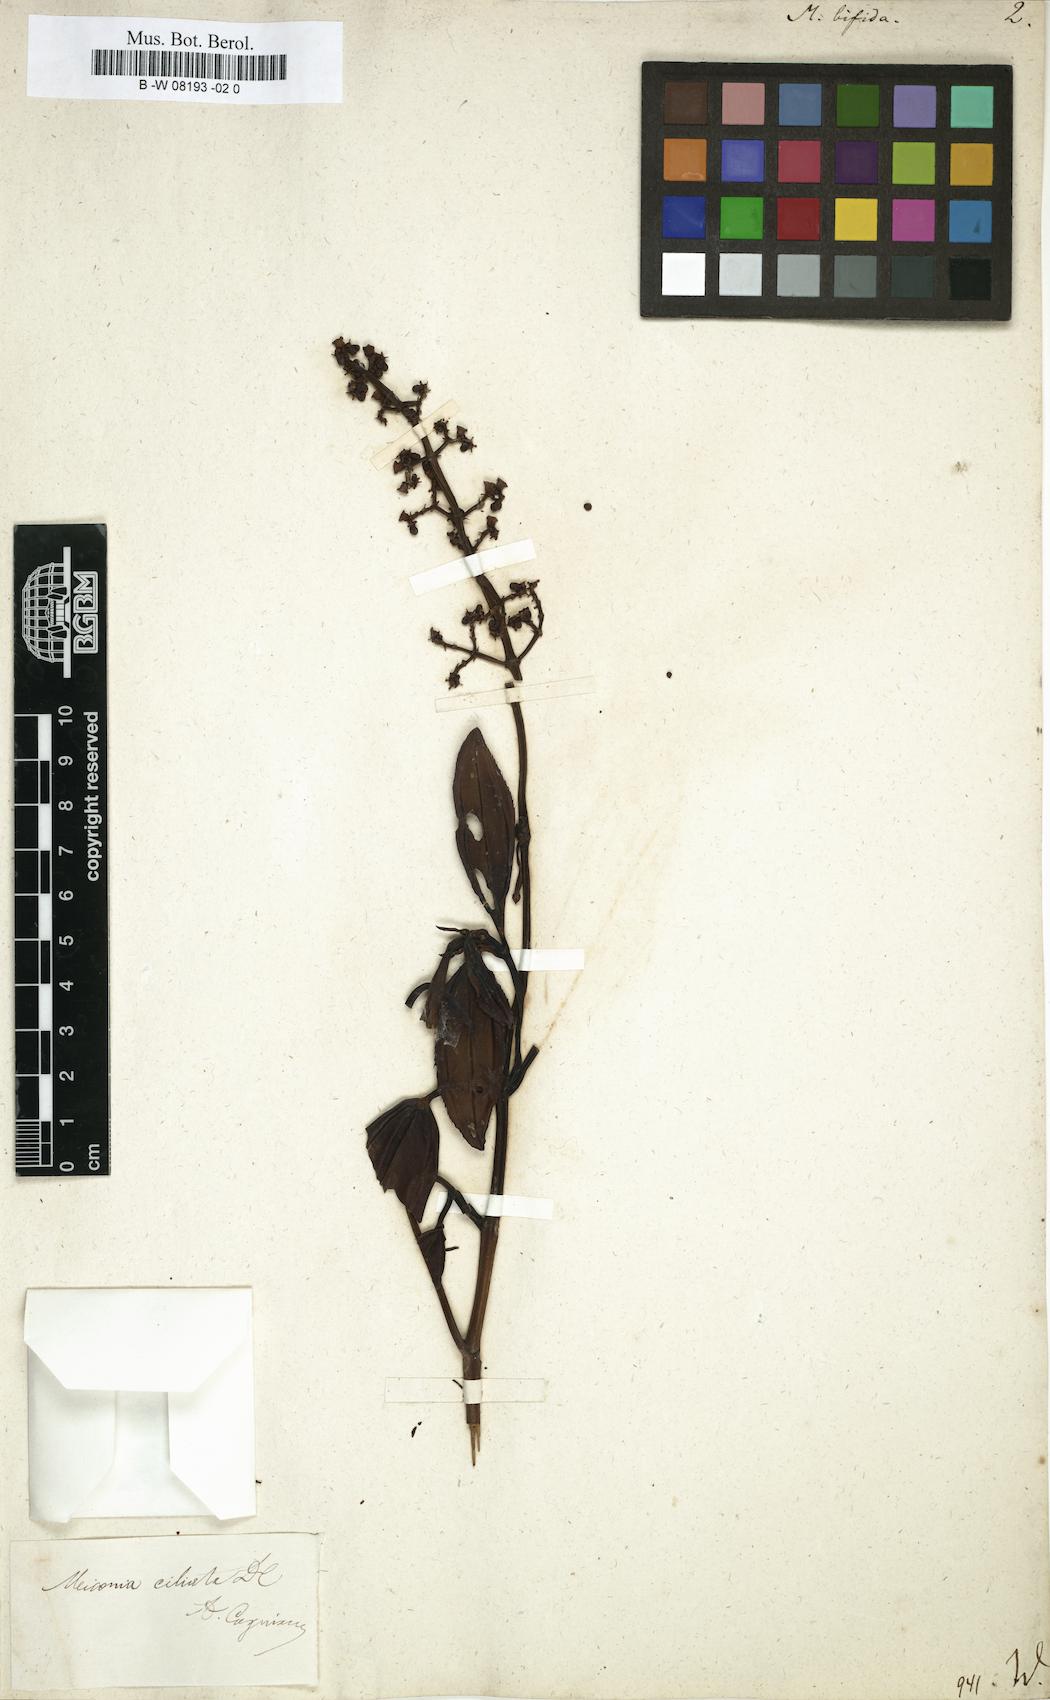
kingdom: Plantae
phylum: Tracheophyta
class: Magnoliopsida
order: Myrtales
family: Melastomataceae
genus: Melastoma
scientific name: Melastoma
